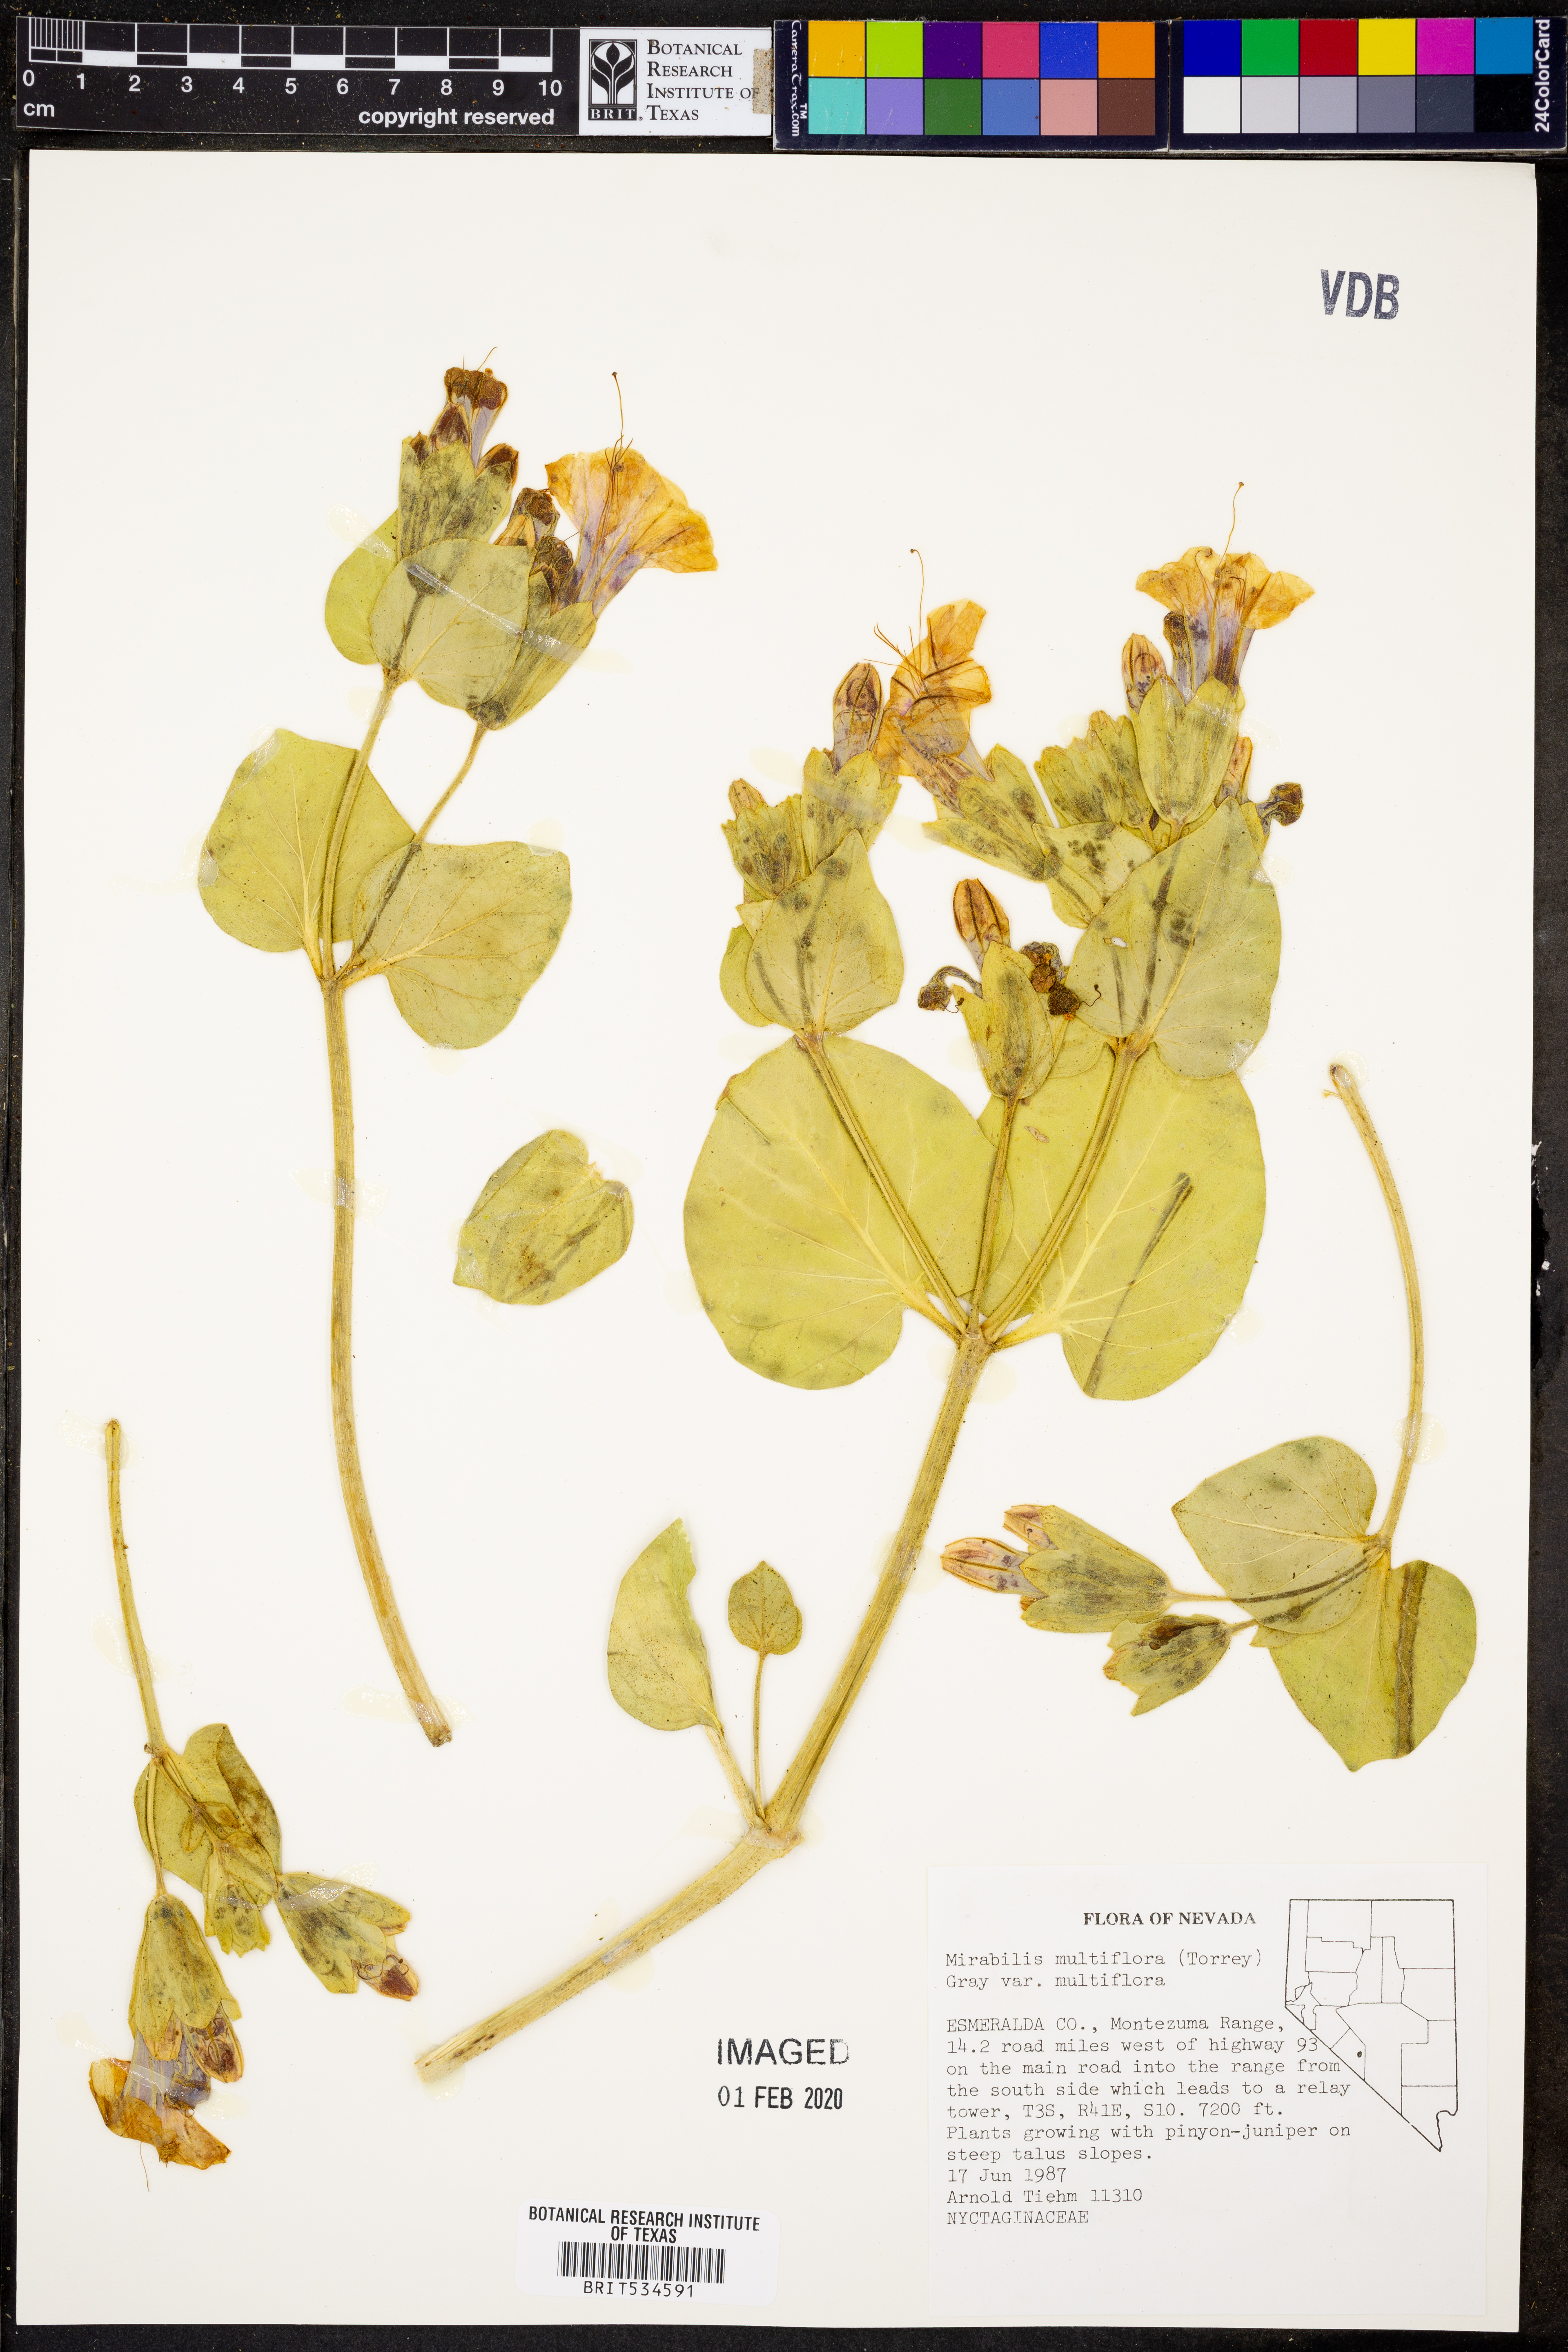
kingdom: Plantae
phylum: Tracheophyta
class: Magnoliopsida
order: Caryophyllales
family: Nyctaginaceae
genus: Mirabilis
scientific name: Mirabilis multiflora
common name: Froebel's four-o'clock
